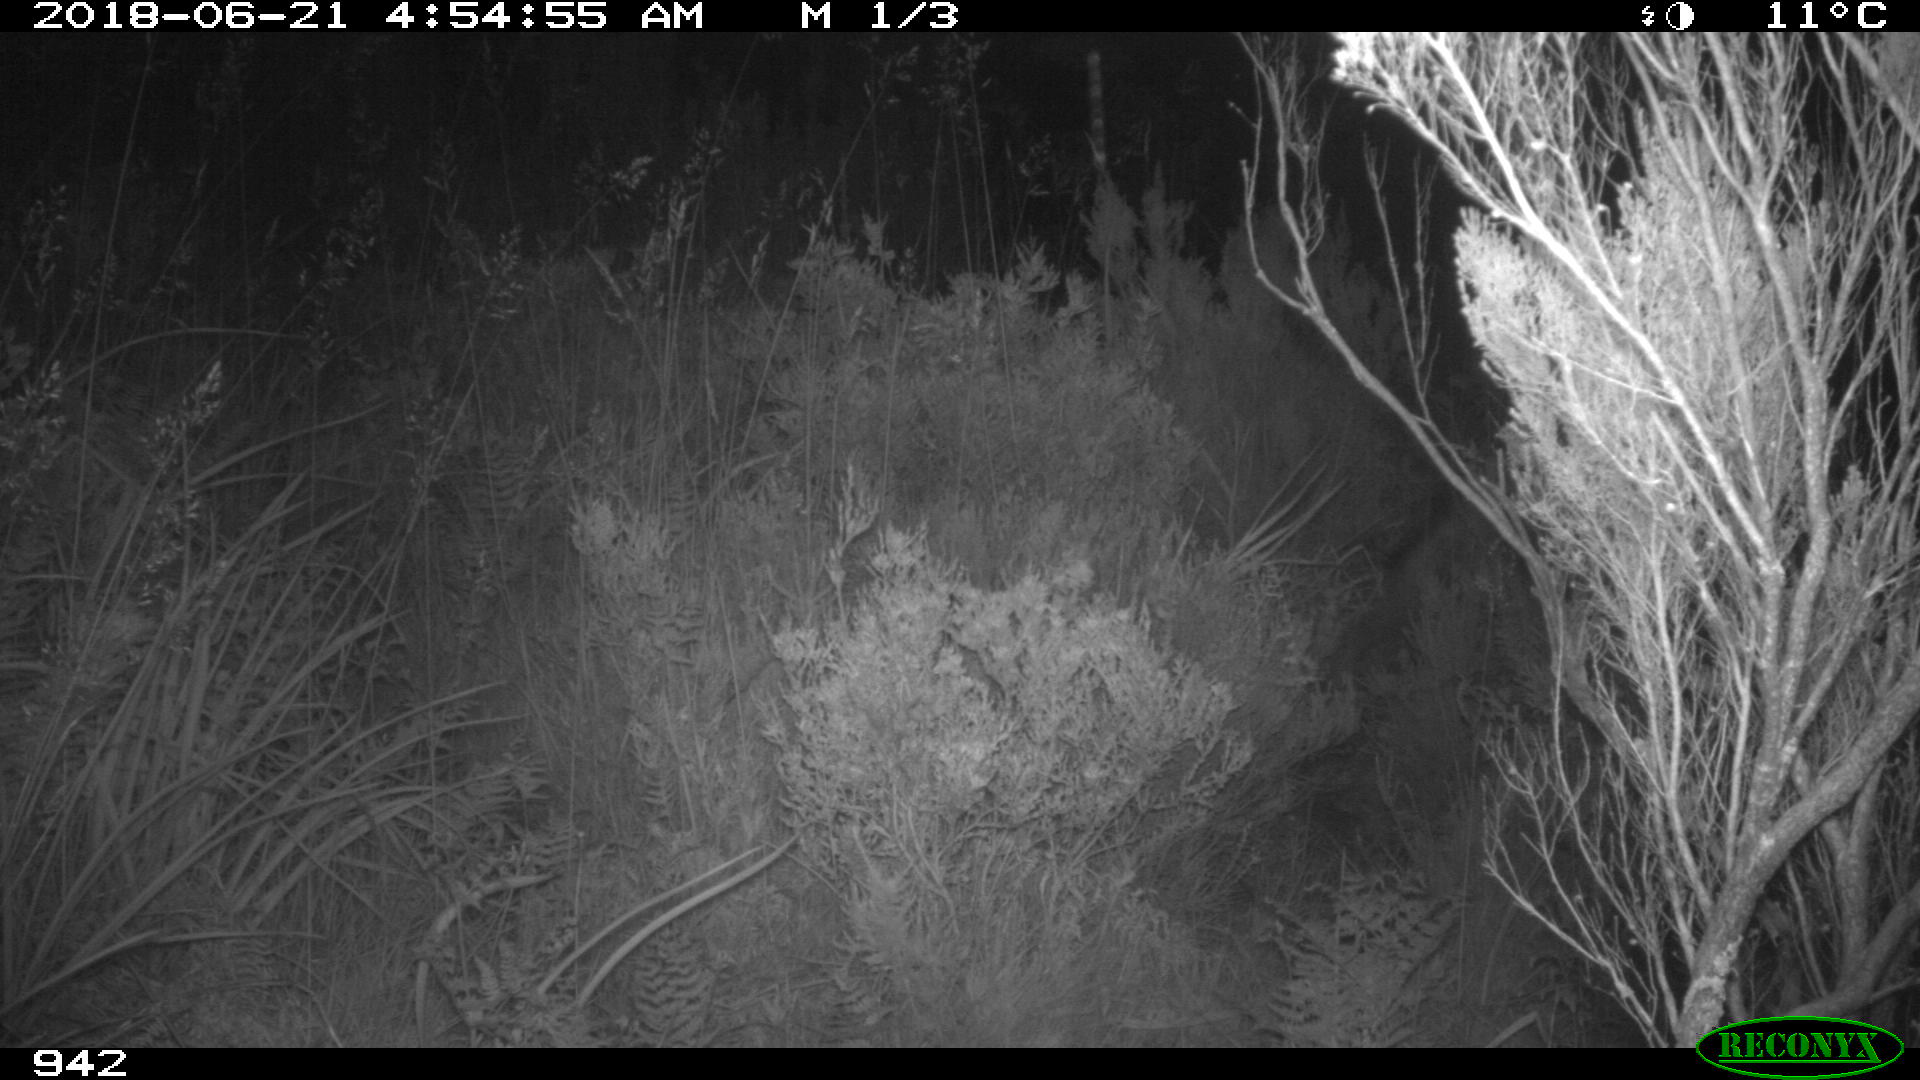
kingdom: Animalia
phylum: Chordata
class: Mammalia
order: Carnivora
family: Canidae
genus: Canis
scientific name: Canis lupus
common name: Gray wolf
